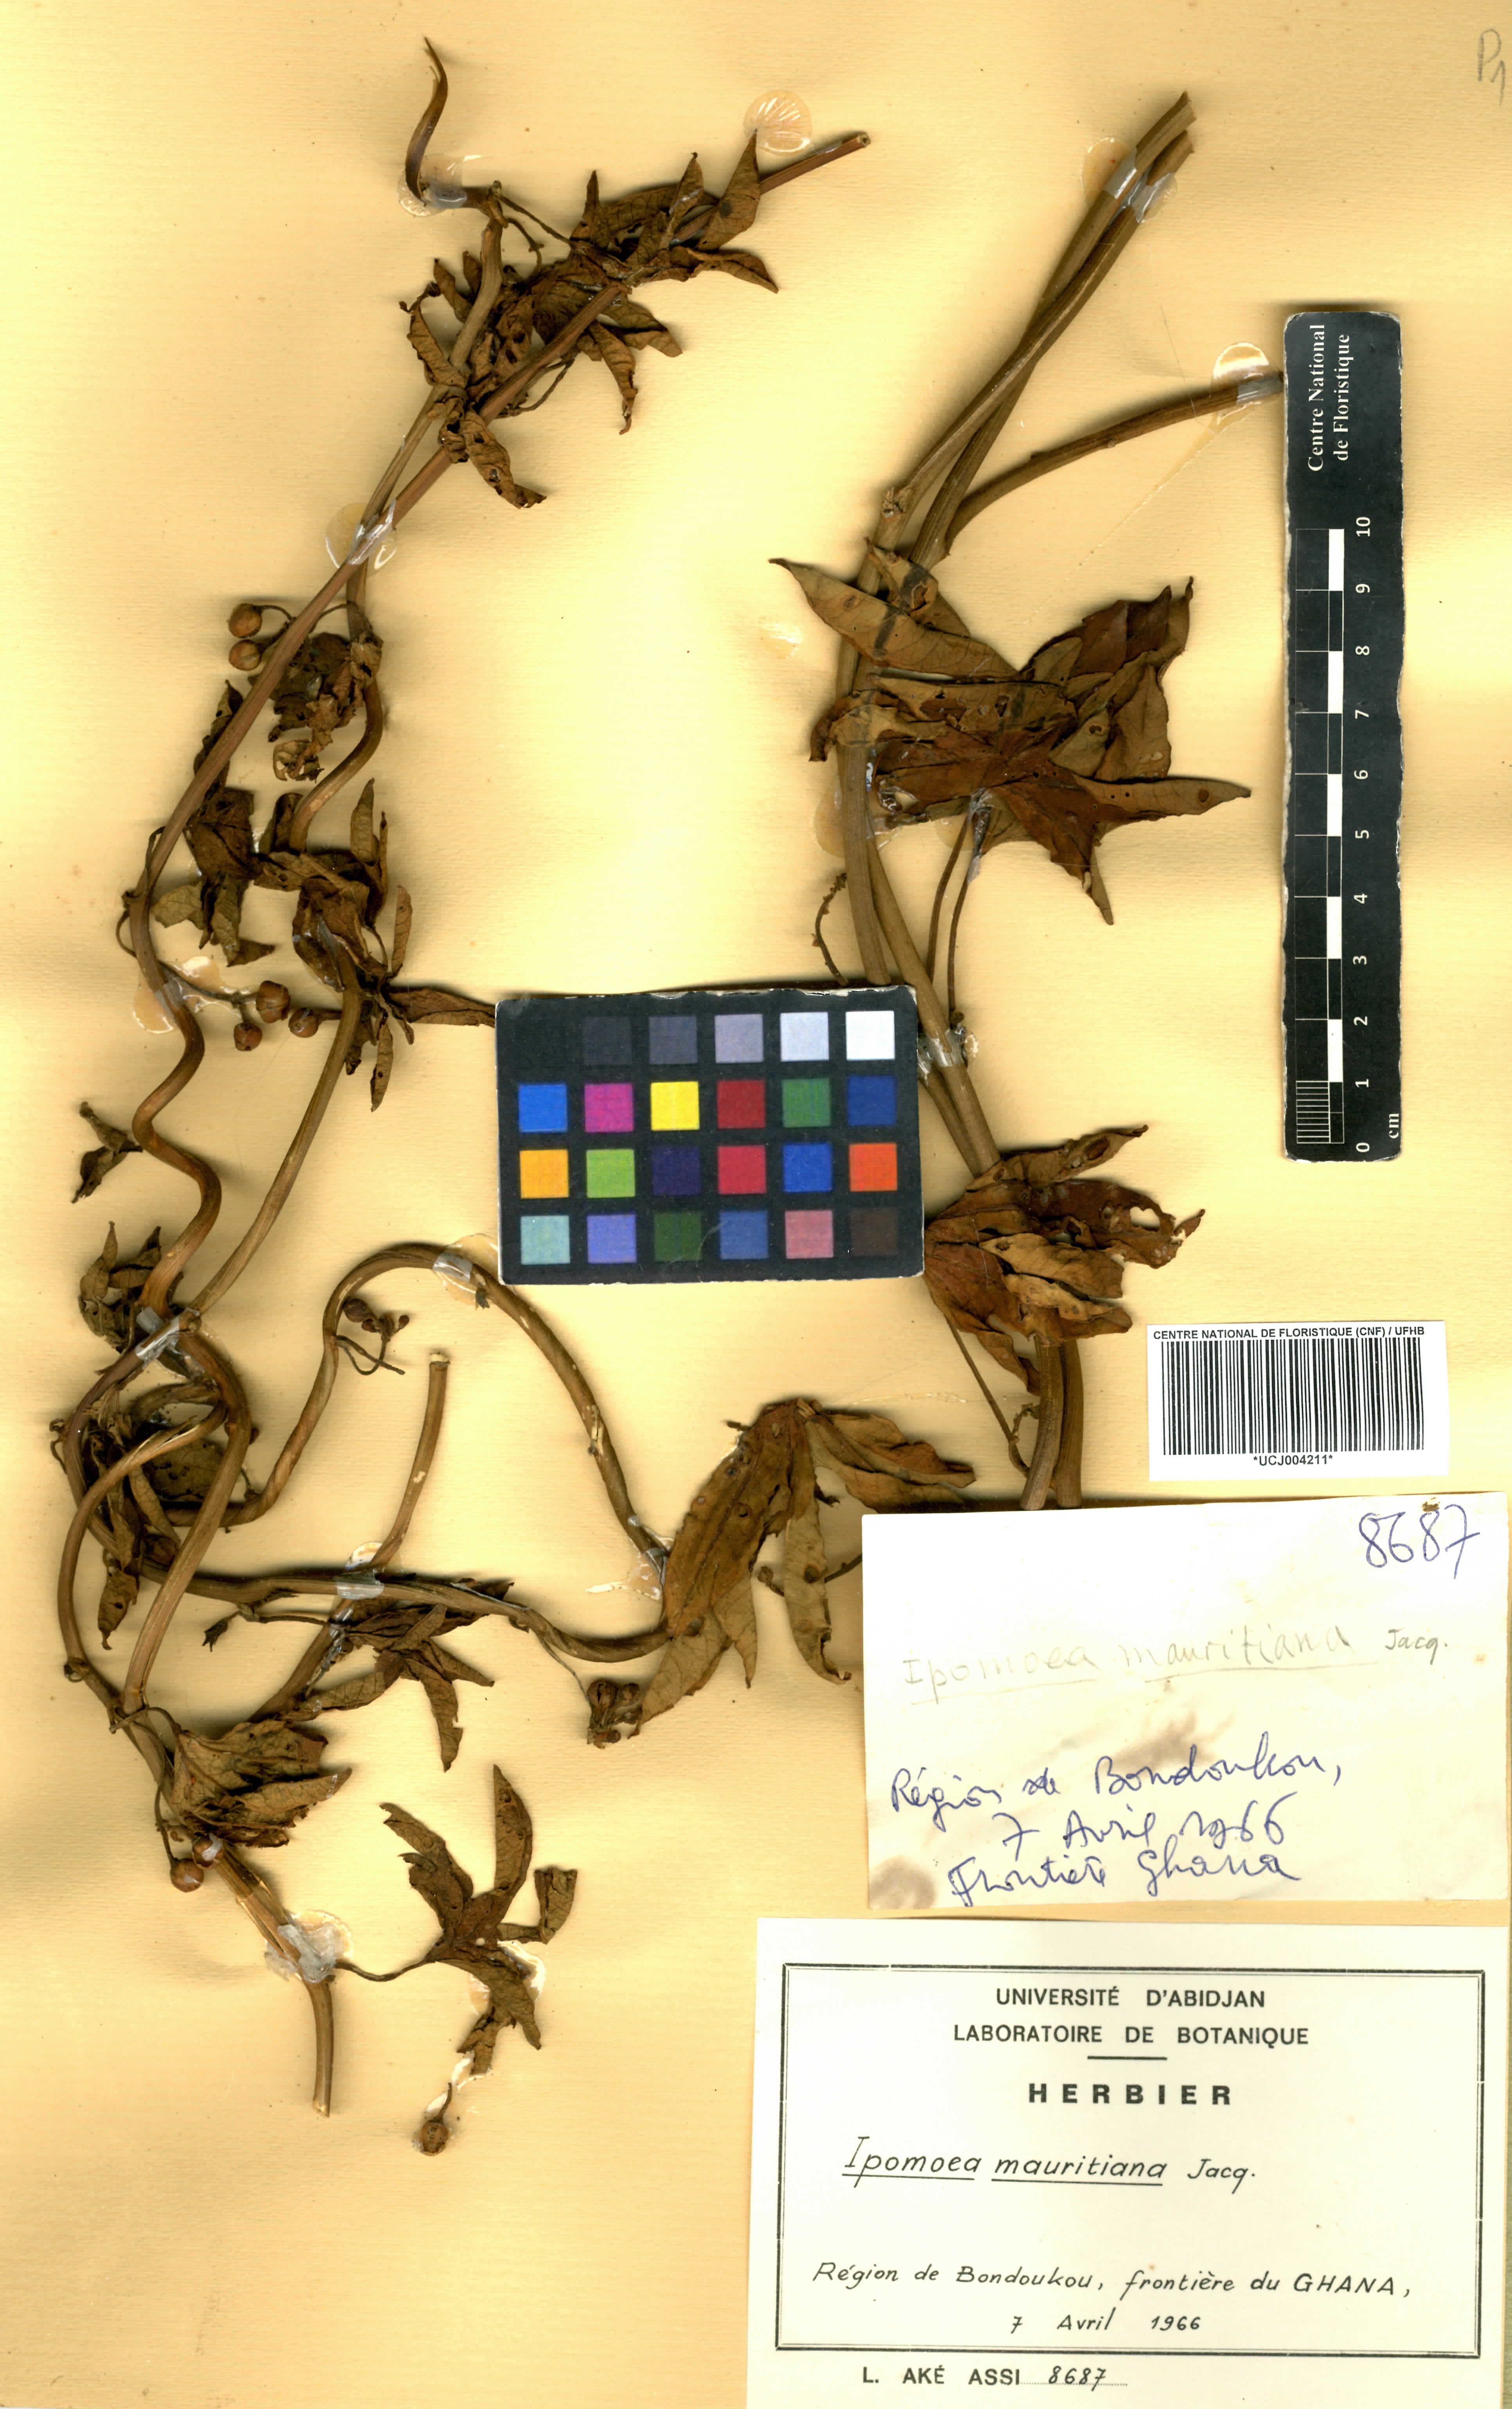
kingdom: Plantae
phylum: Tracheophyta
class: Magnoliopsida
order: Solanales
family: Convolvulaceae
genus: Ipomoea
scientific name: Ipomoea mauritiana
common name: Mauritanian convolvulus
